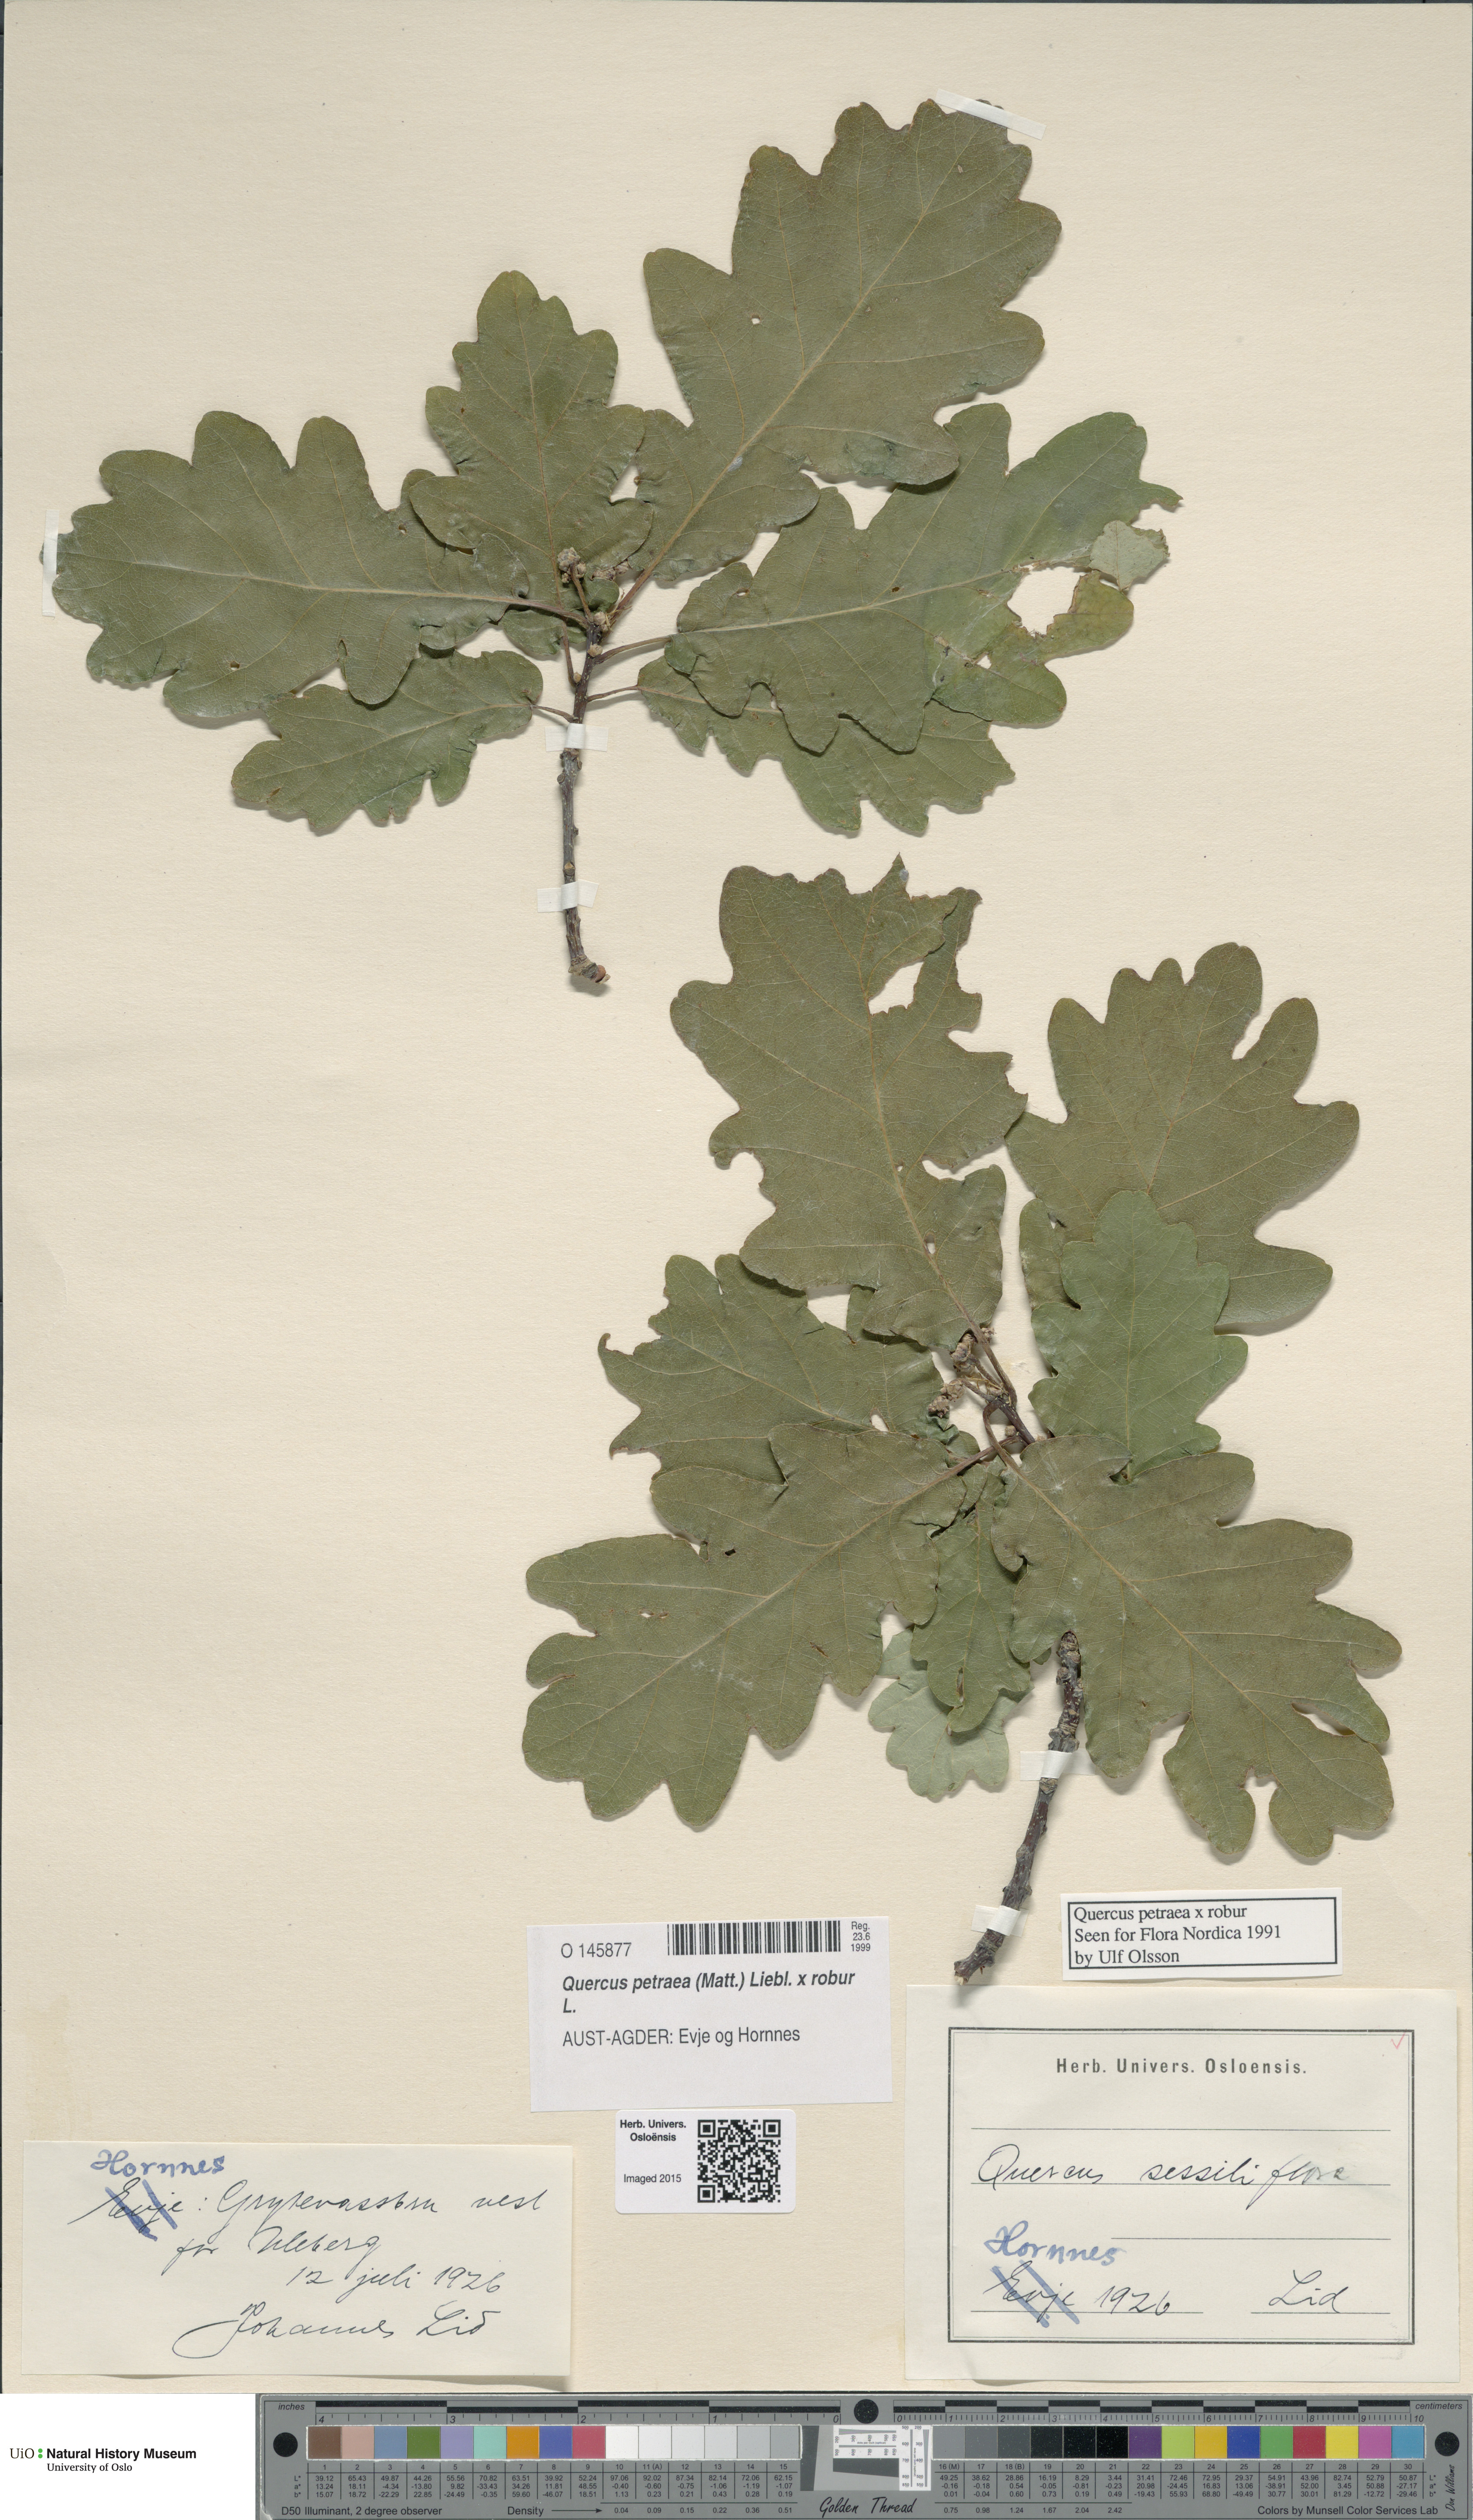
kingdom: Plantae
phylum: Tracheophyta
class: Magnoliopsida
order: Fagales
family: Fagaceae
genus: Quercus
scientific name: Quercus
